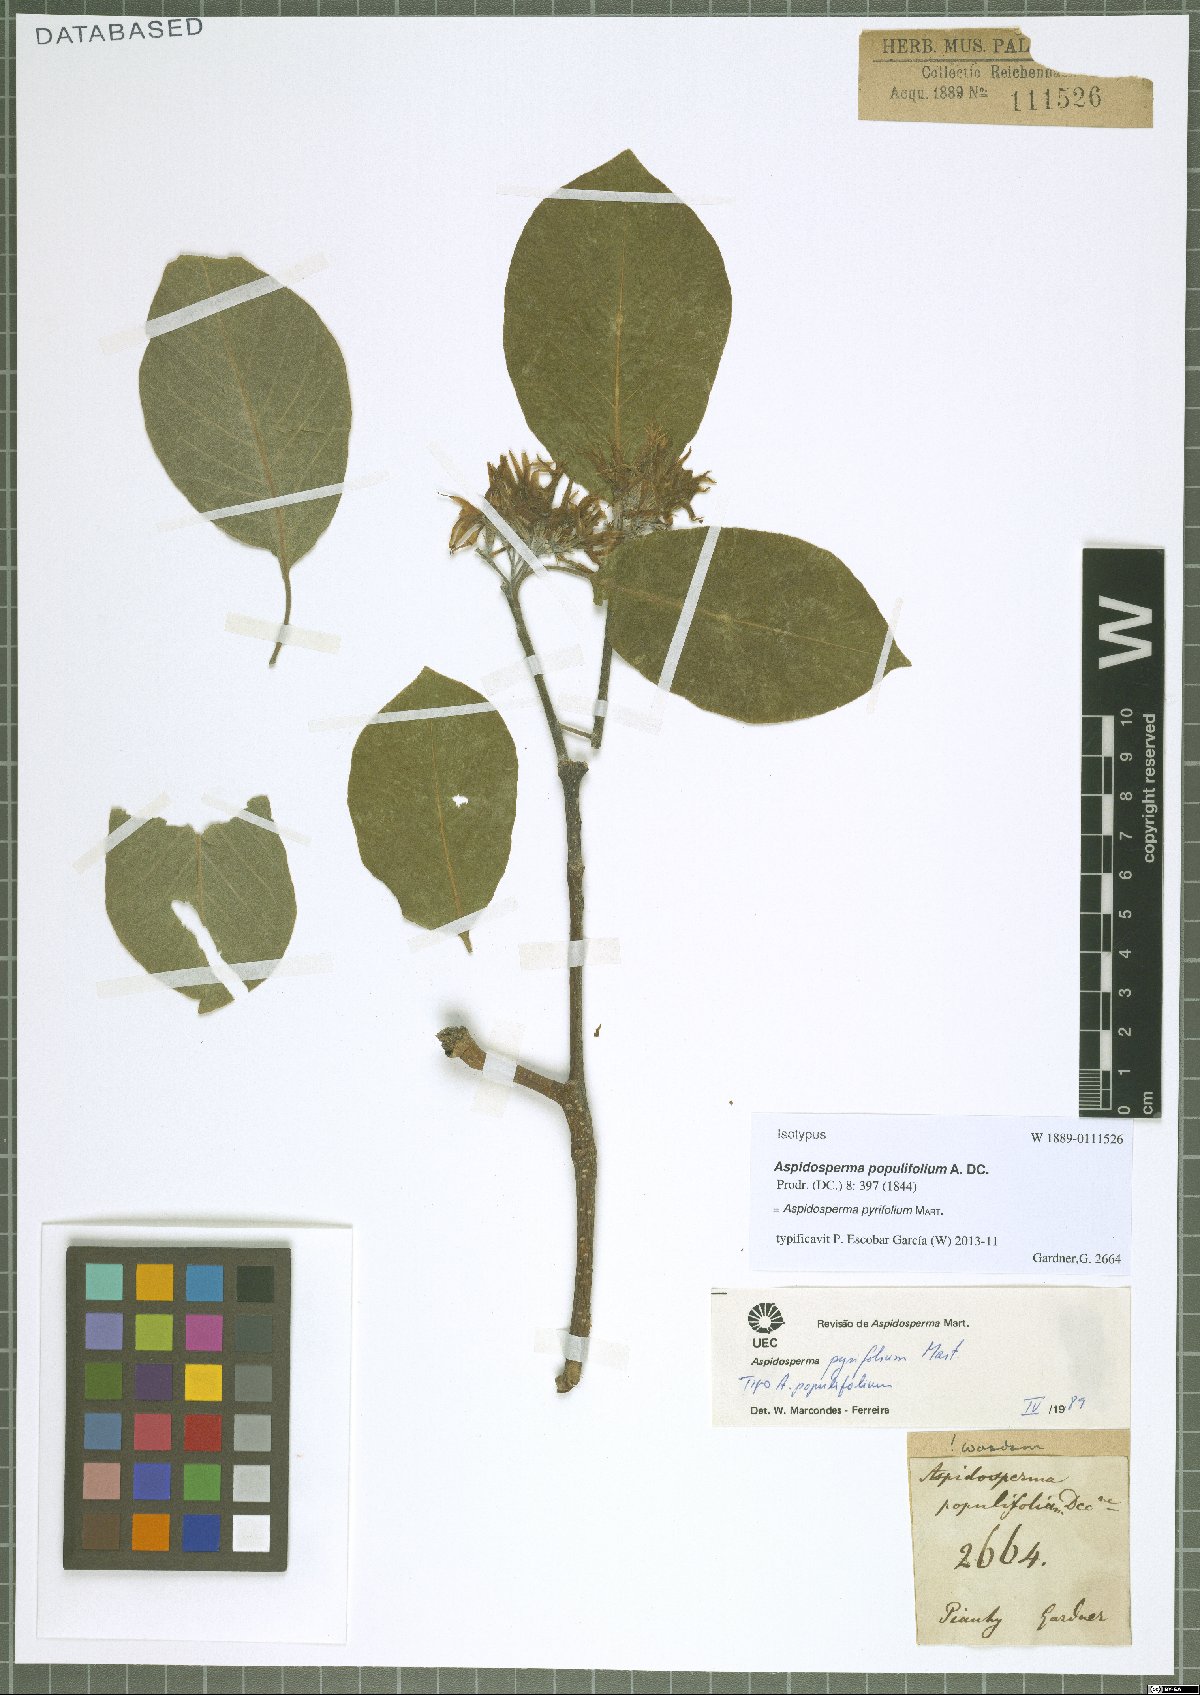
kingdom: Plantae
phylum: Tracheophyta
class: Magnoliopsida
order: Gentianales
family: Apocynaceae
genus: Aspidosperma
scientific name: Aspidosperma pyrifolium
